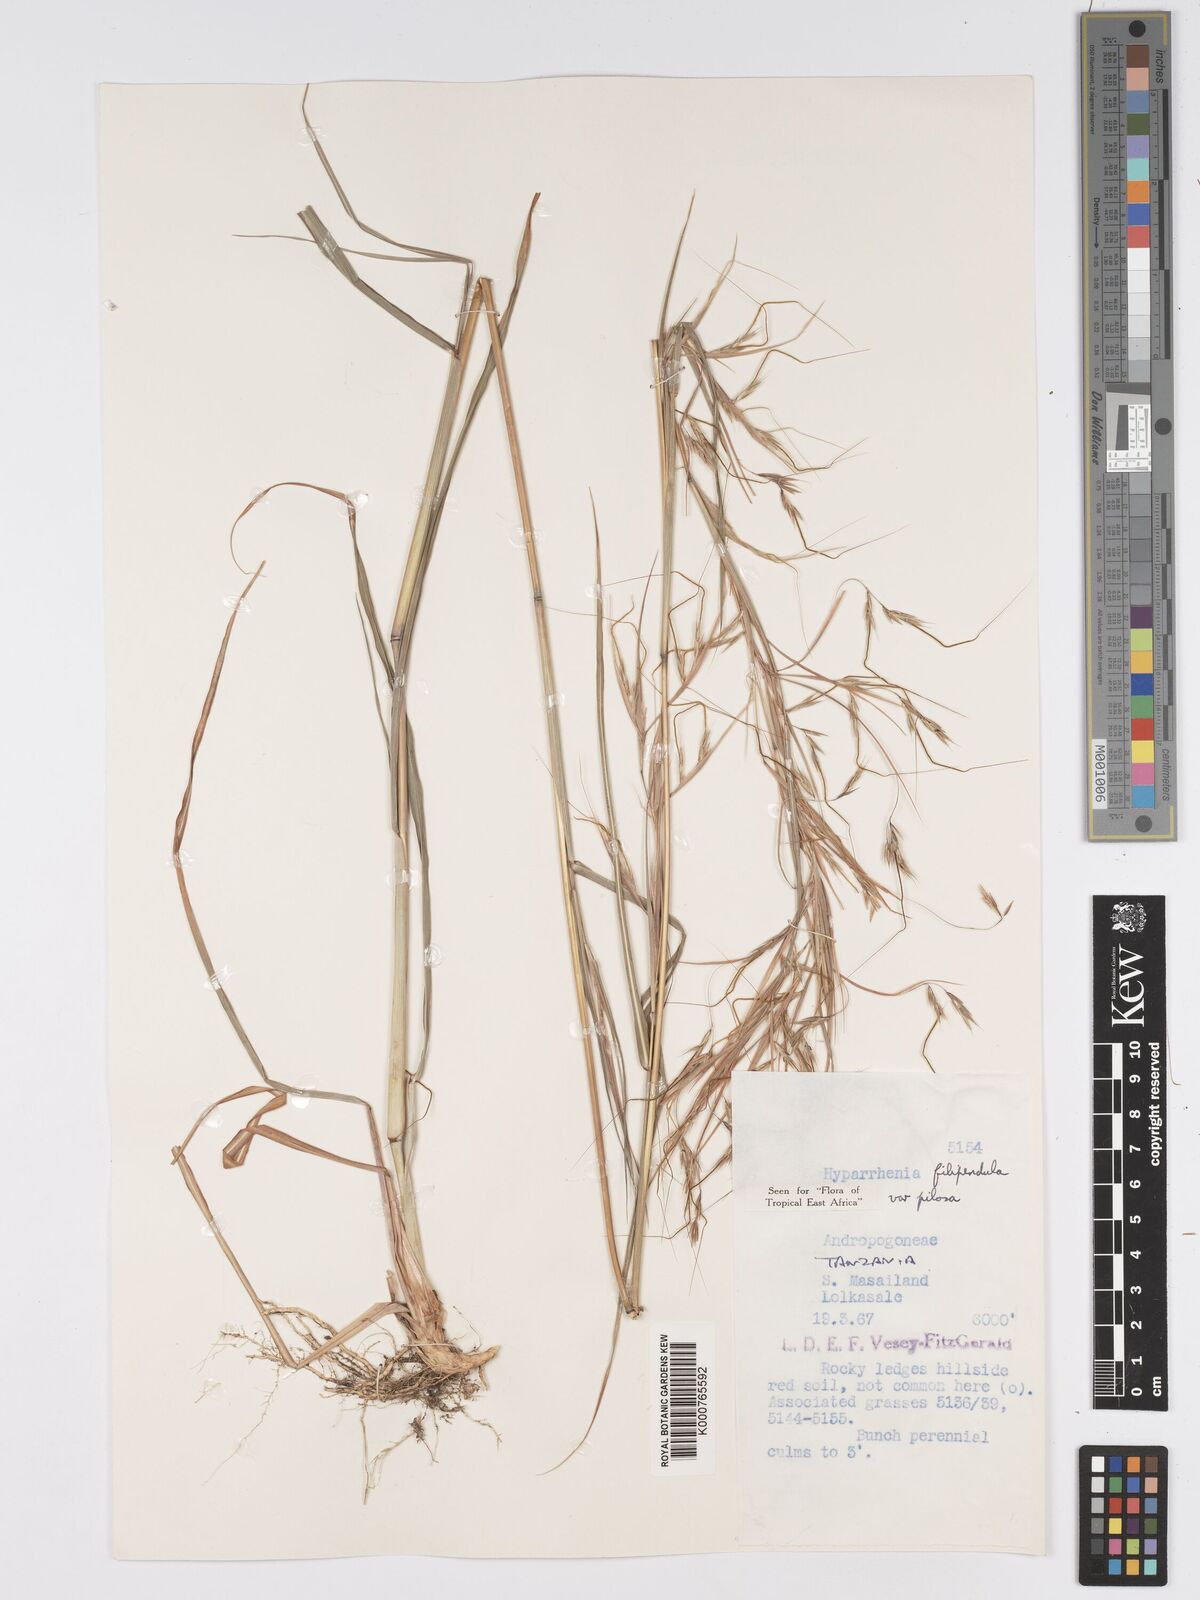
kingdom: Plantae
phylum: Tracheophyta
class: Liliopsida
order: Poales
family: Poaceae
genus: Hyparrhenia
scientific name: Hyparrhenia filipendula
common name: Tambookie grass
